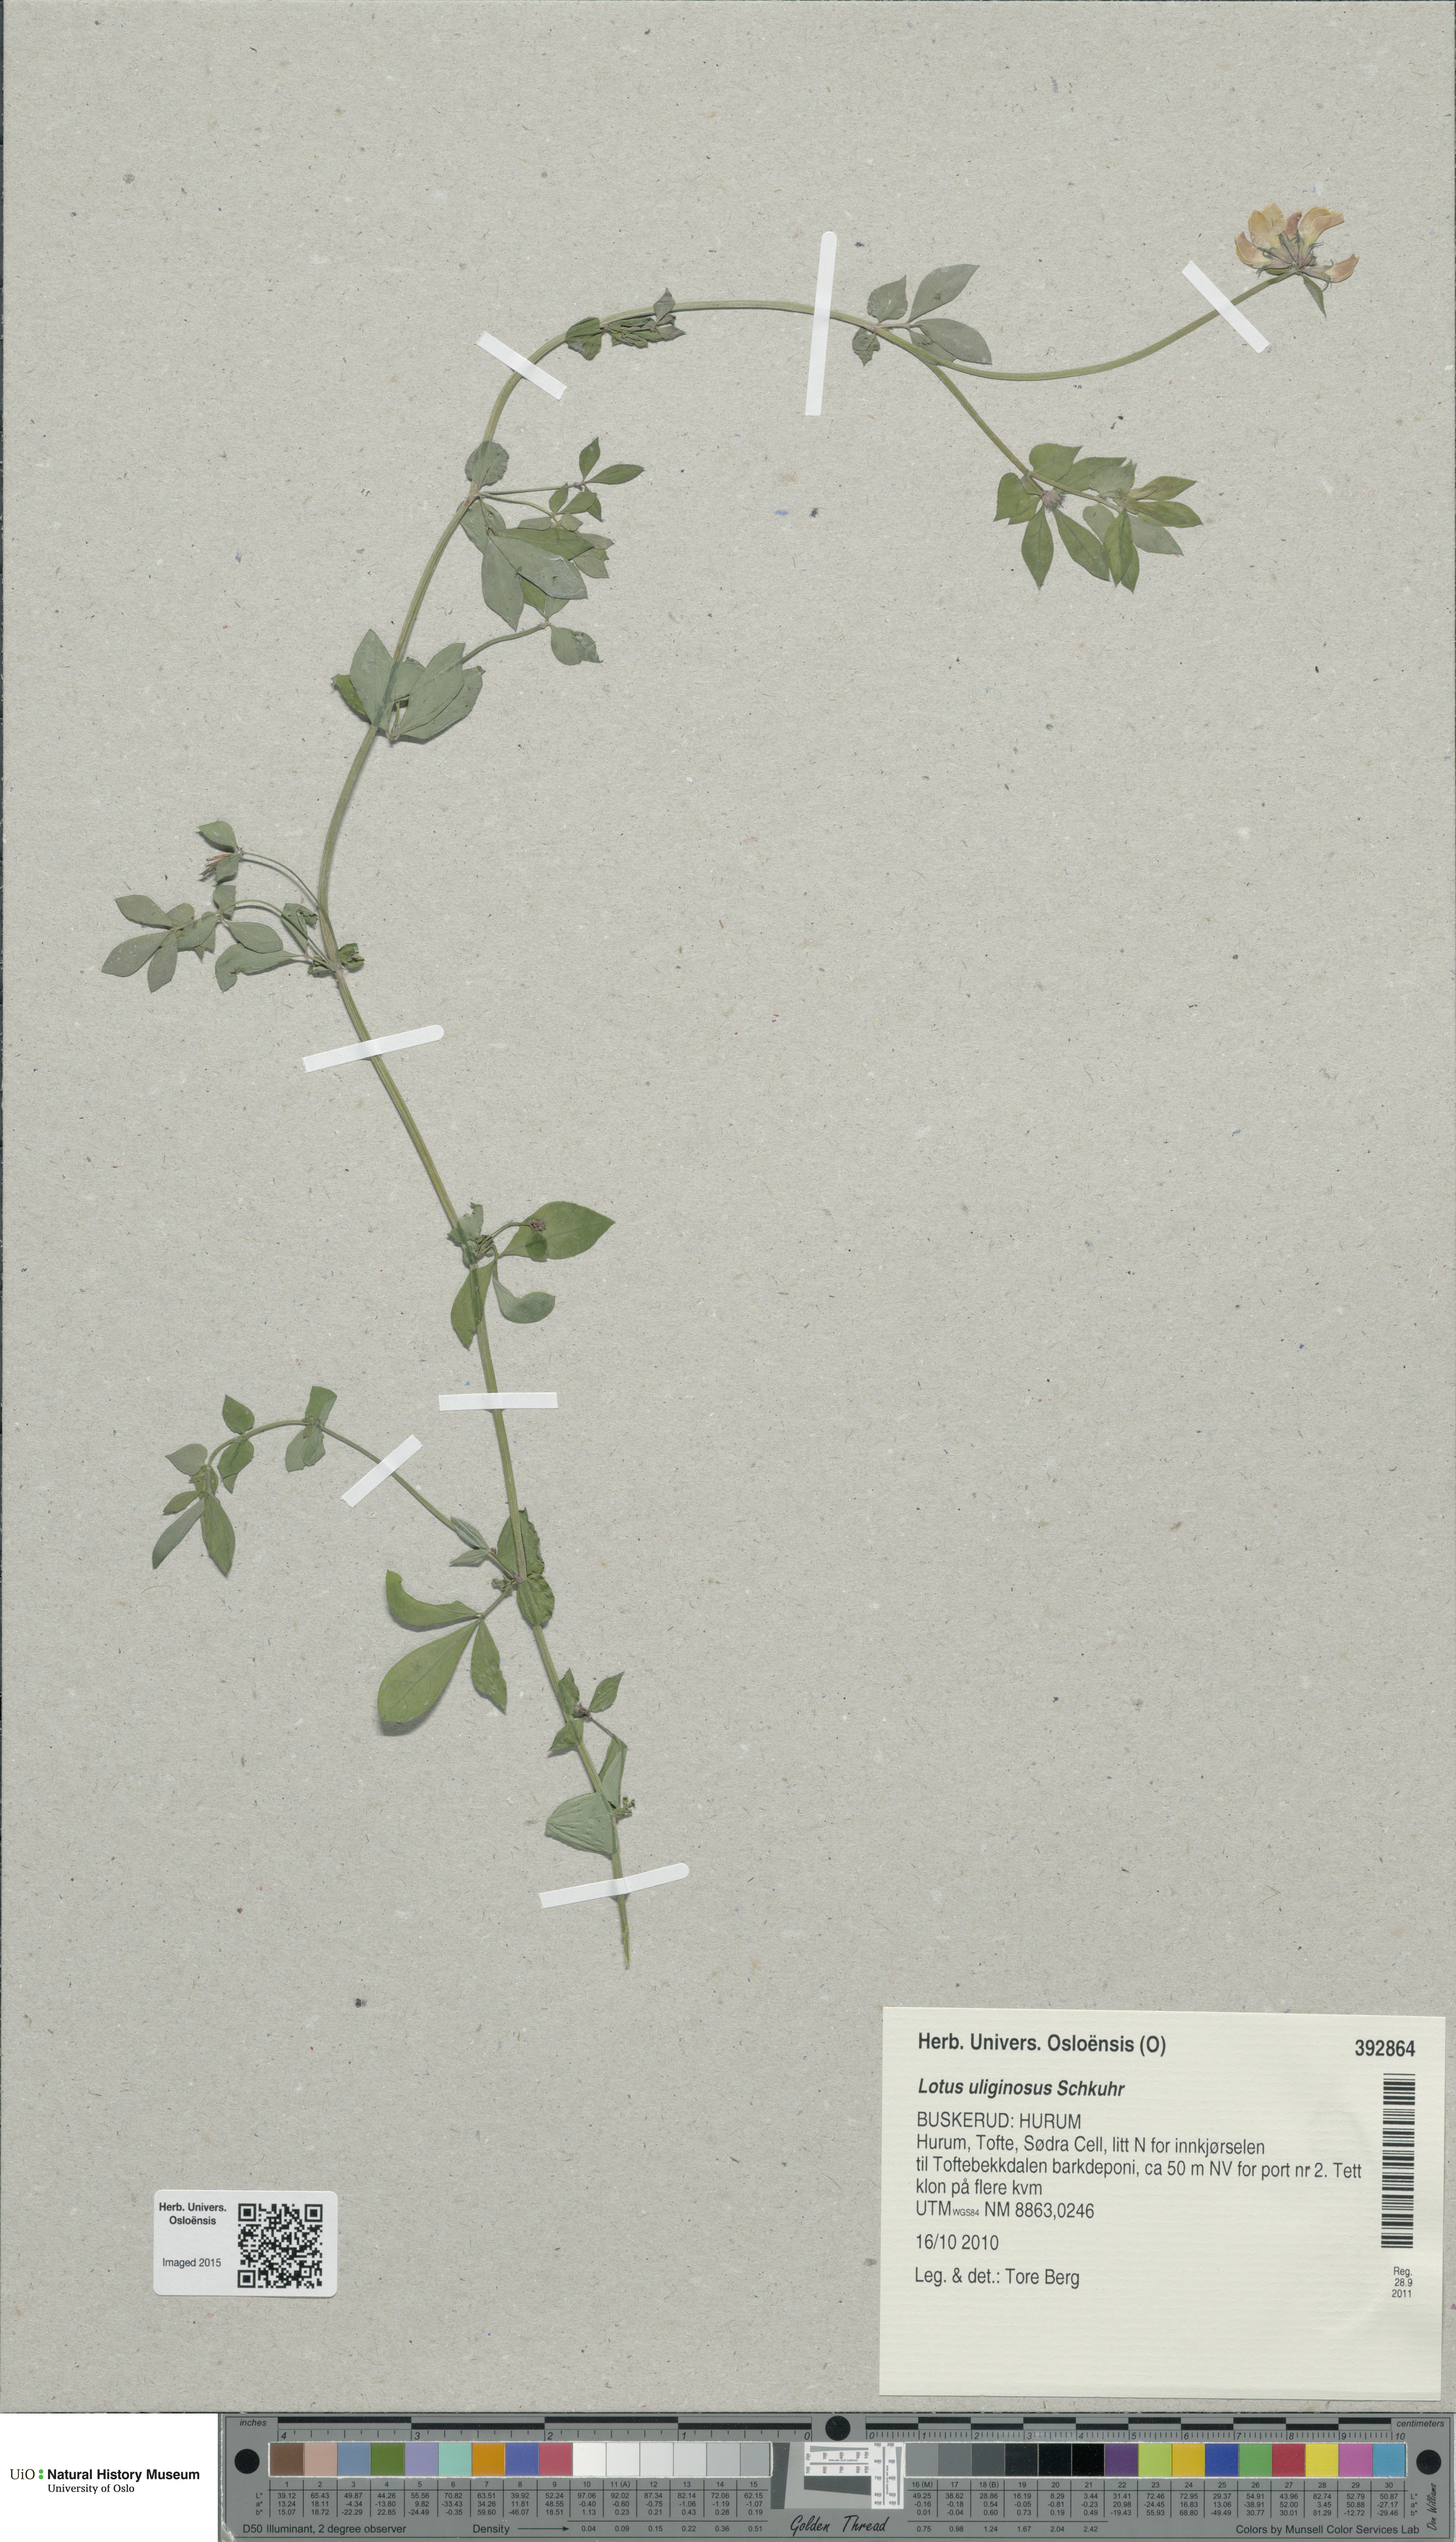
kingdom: Plantae
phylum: Tracheophyta
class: Magnoliopsida
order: Fabales
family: Fabaceae
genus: Lotus
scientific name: Lotus pedunculatus
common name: Greater birdsfoot-trefoil
